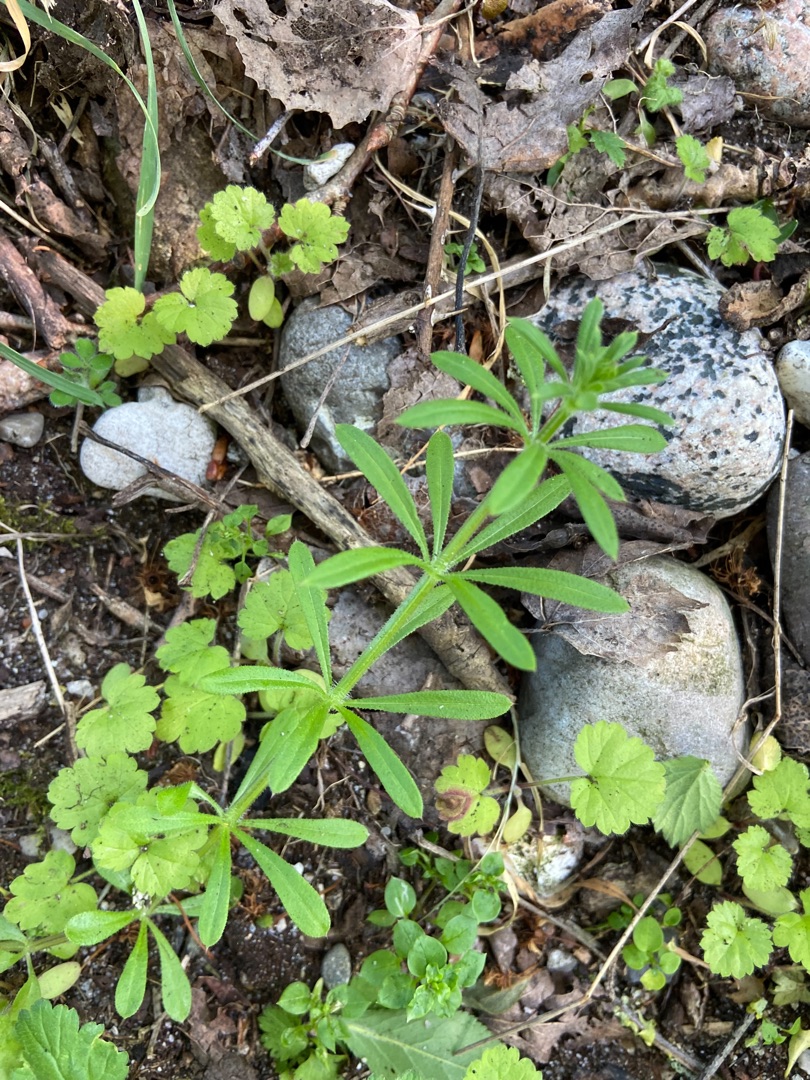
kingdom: Plantae
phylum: Tracheophyta
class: Magnoliopsida
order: Gentianales
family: Rubiaceae
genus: Galium
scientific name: Galium aparine
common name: Burre-snerre
